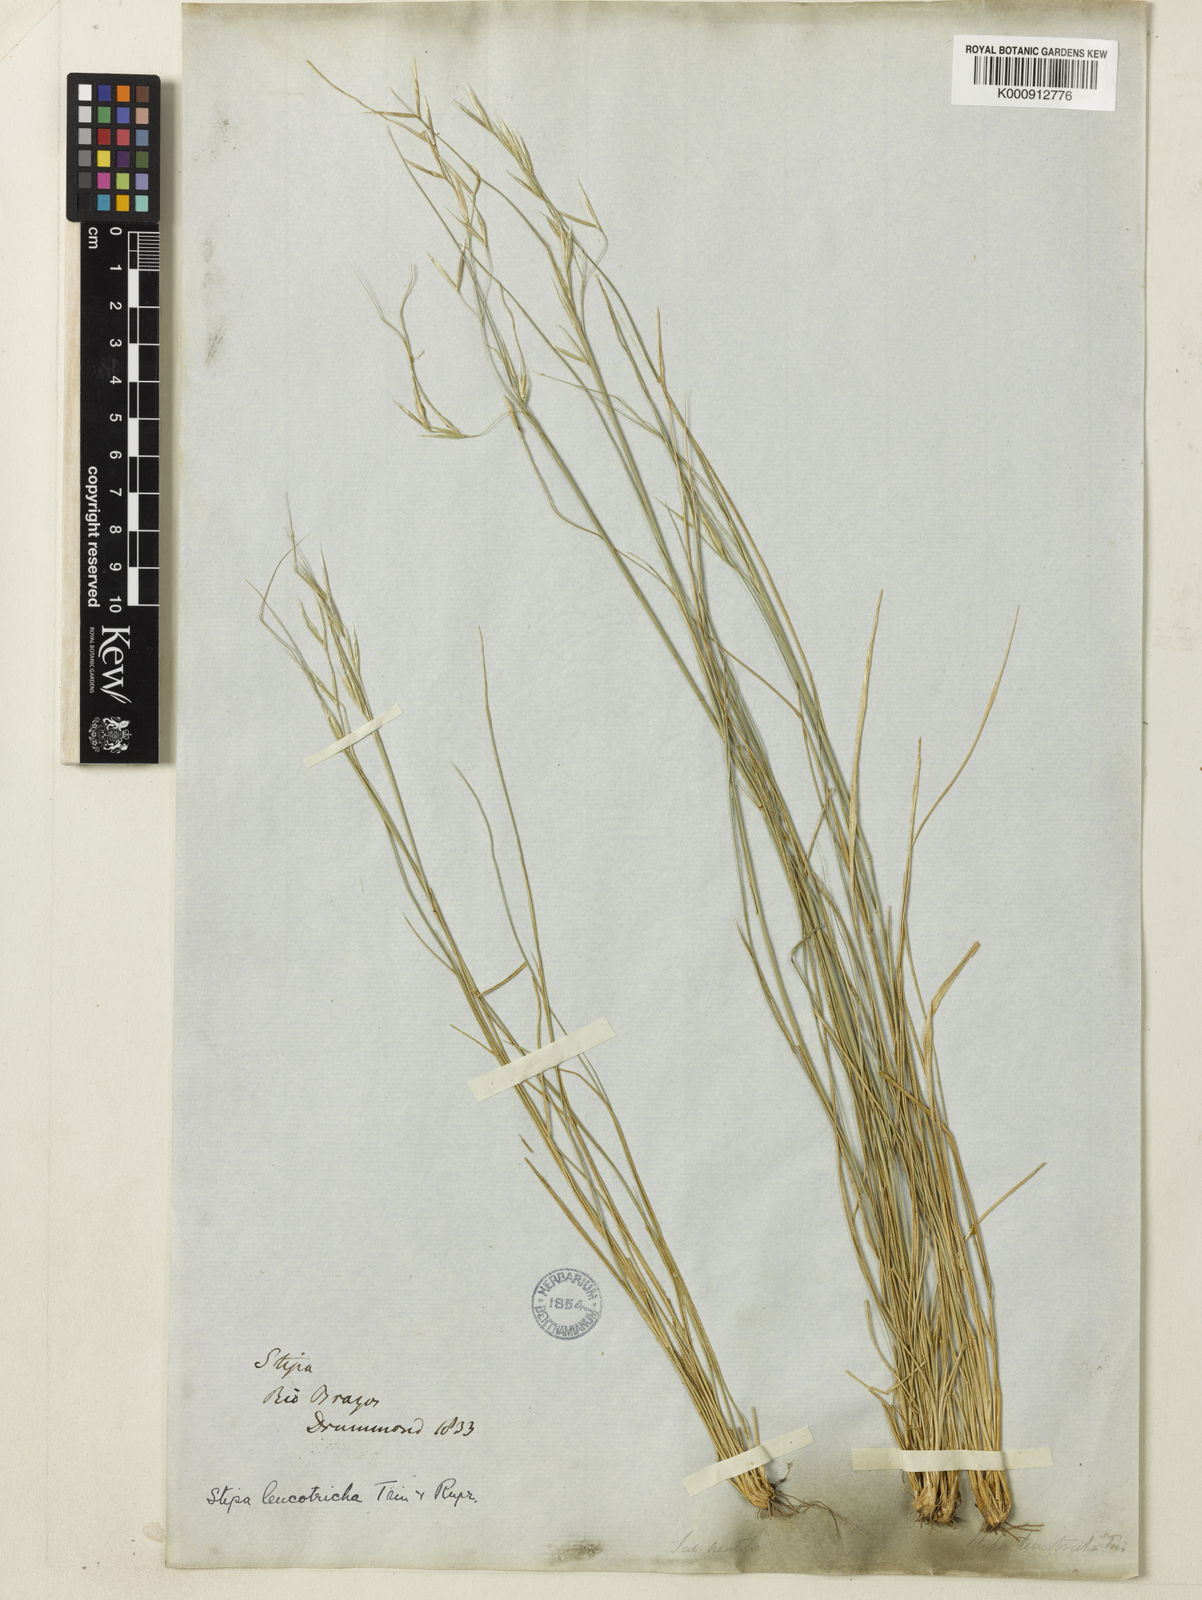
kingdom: Plantae
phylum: Tracheophyta
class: Liliopsida
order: Poales
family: Poaceae
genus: Nassella
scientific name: Nassella leucotricha
